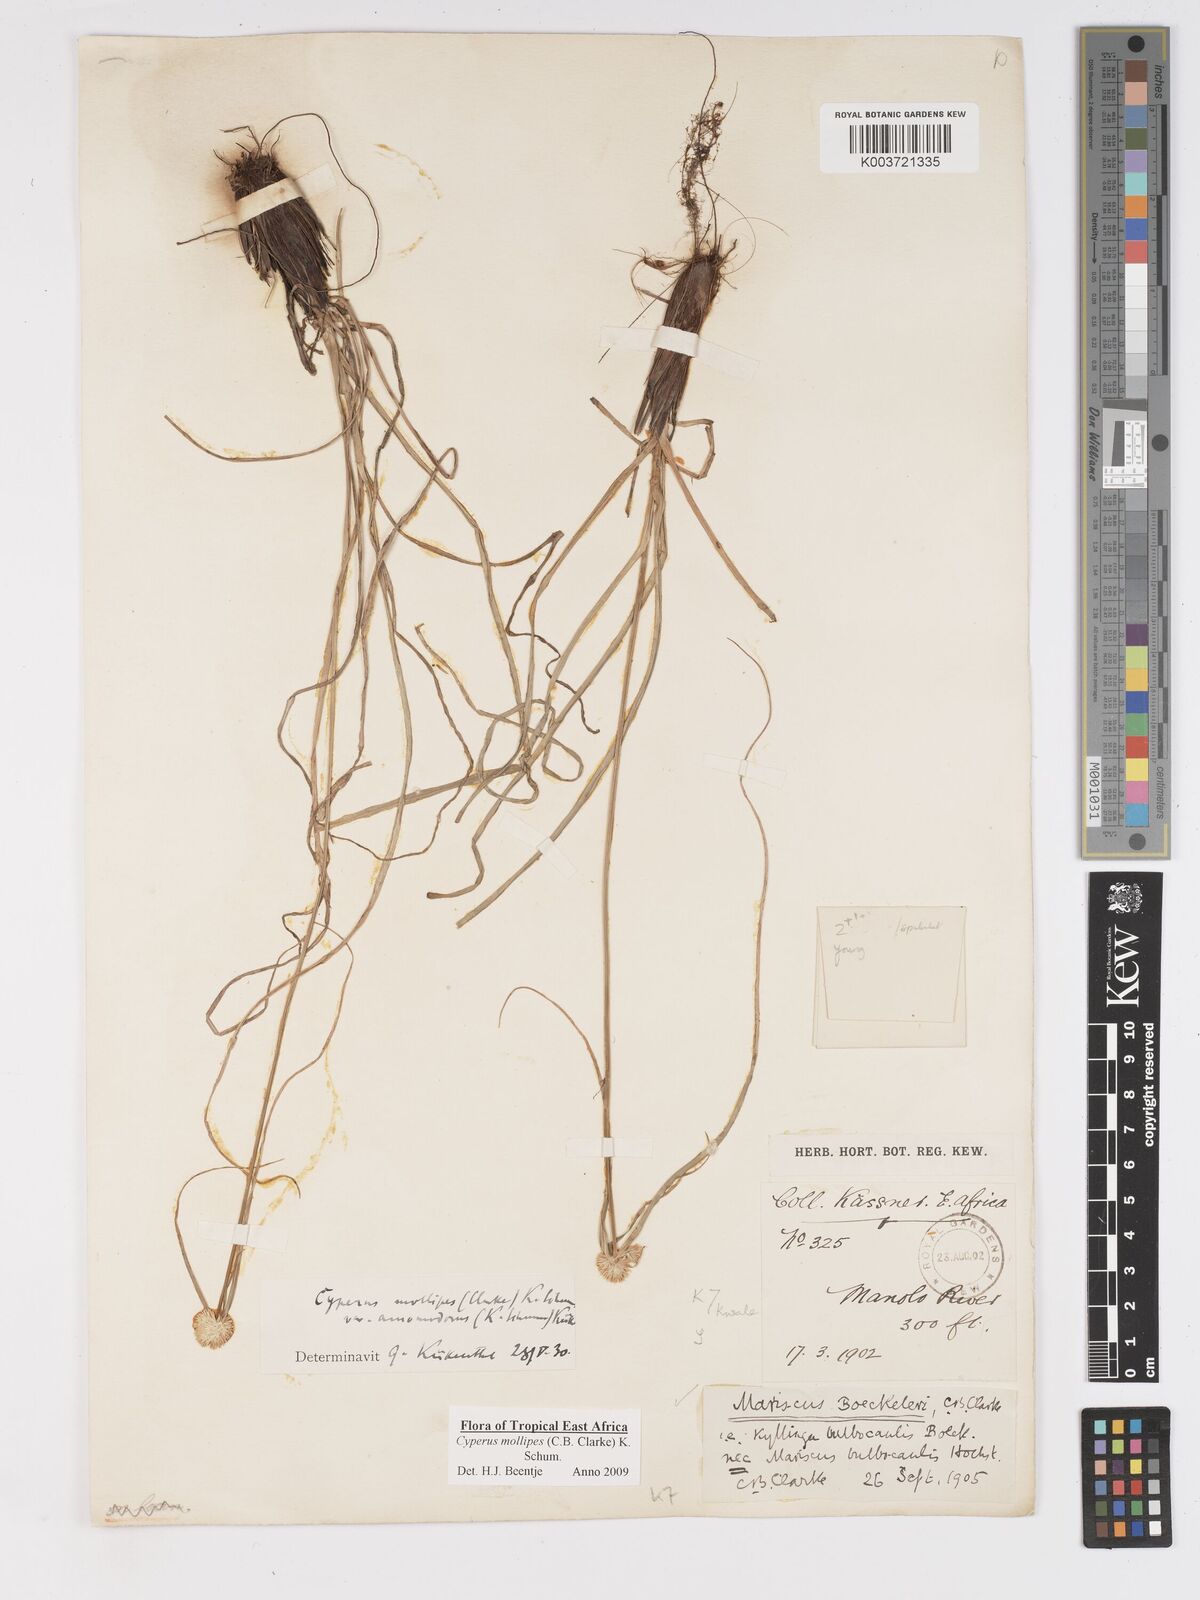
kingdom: Plantae
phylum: Tracheophyta
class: Liliopsida
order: Poales
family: Cyperaceae
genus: Cyperus
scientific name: Cyperus mollipes
